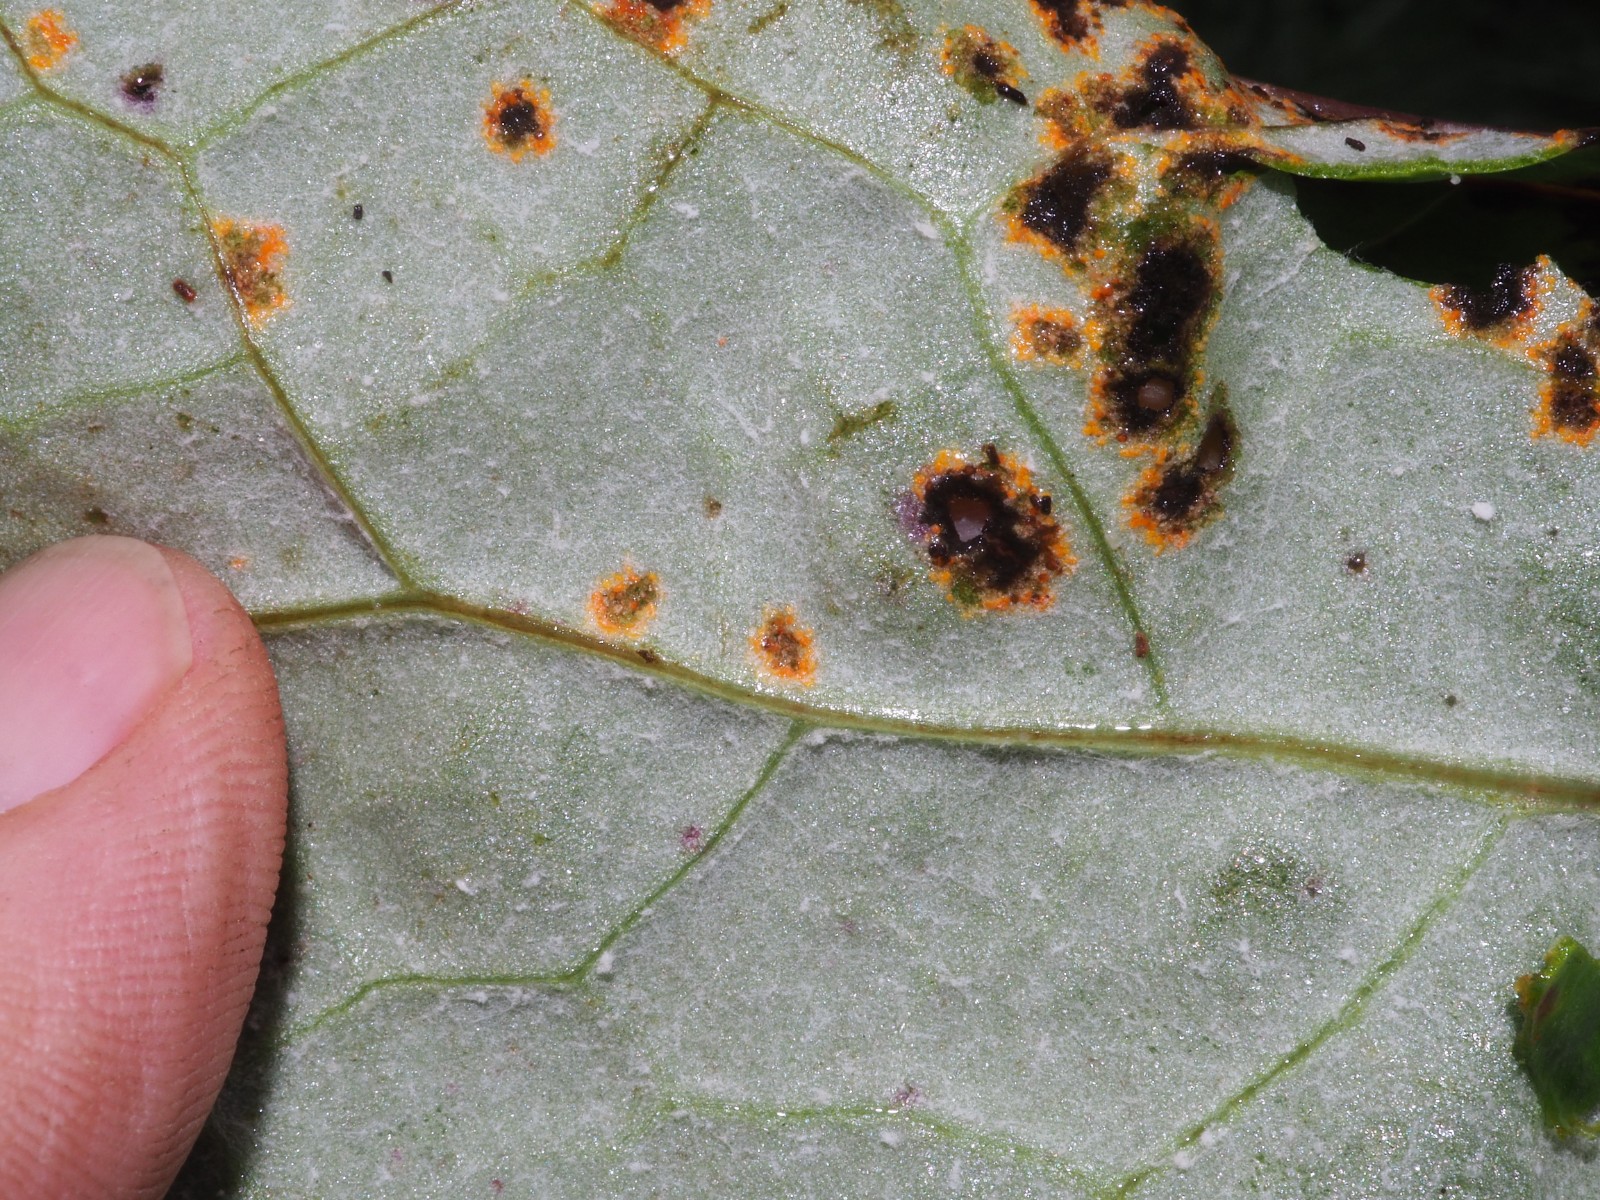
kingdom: Fungi
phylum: Basidiomycota
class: Pucciniomycetes
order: Pucciniales
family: Pucciniaceae
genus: Puccinia
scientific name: Puccinia poarum
